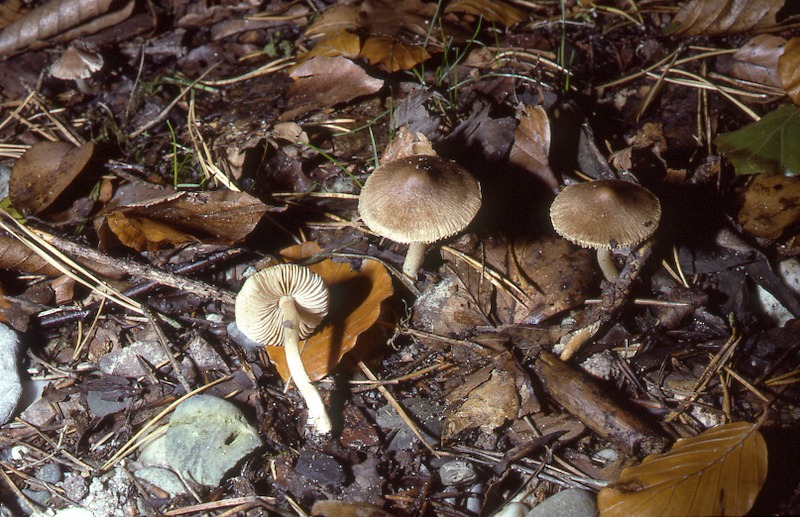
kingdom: Fungi
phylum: Basidiomycota
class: Agaricomycetes
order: Agaricales
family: Inocybaceae
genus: Inocybe
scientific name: Inocybe flocculosa
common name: Fleecy fibrecap
